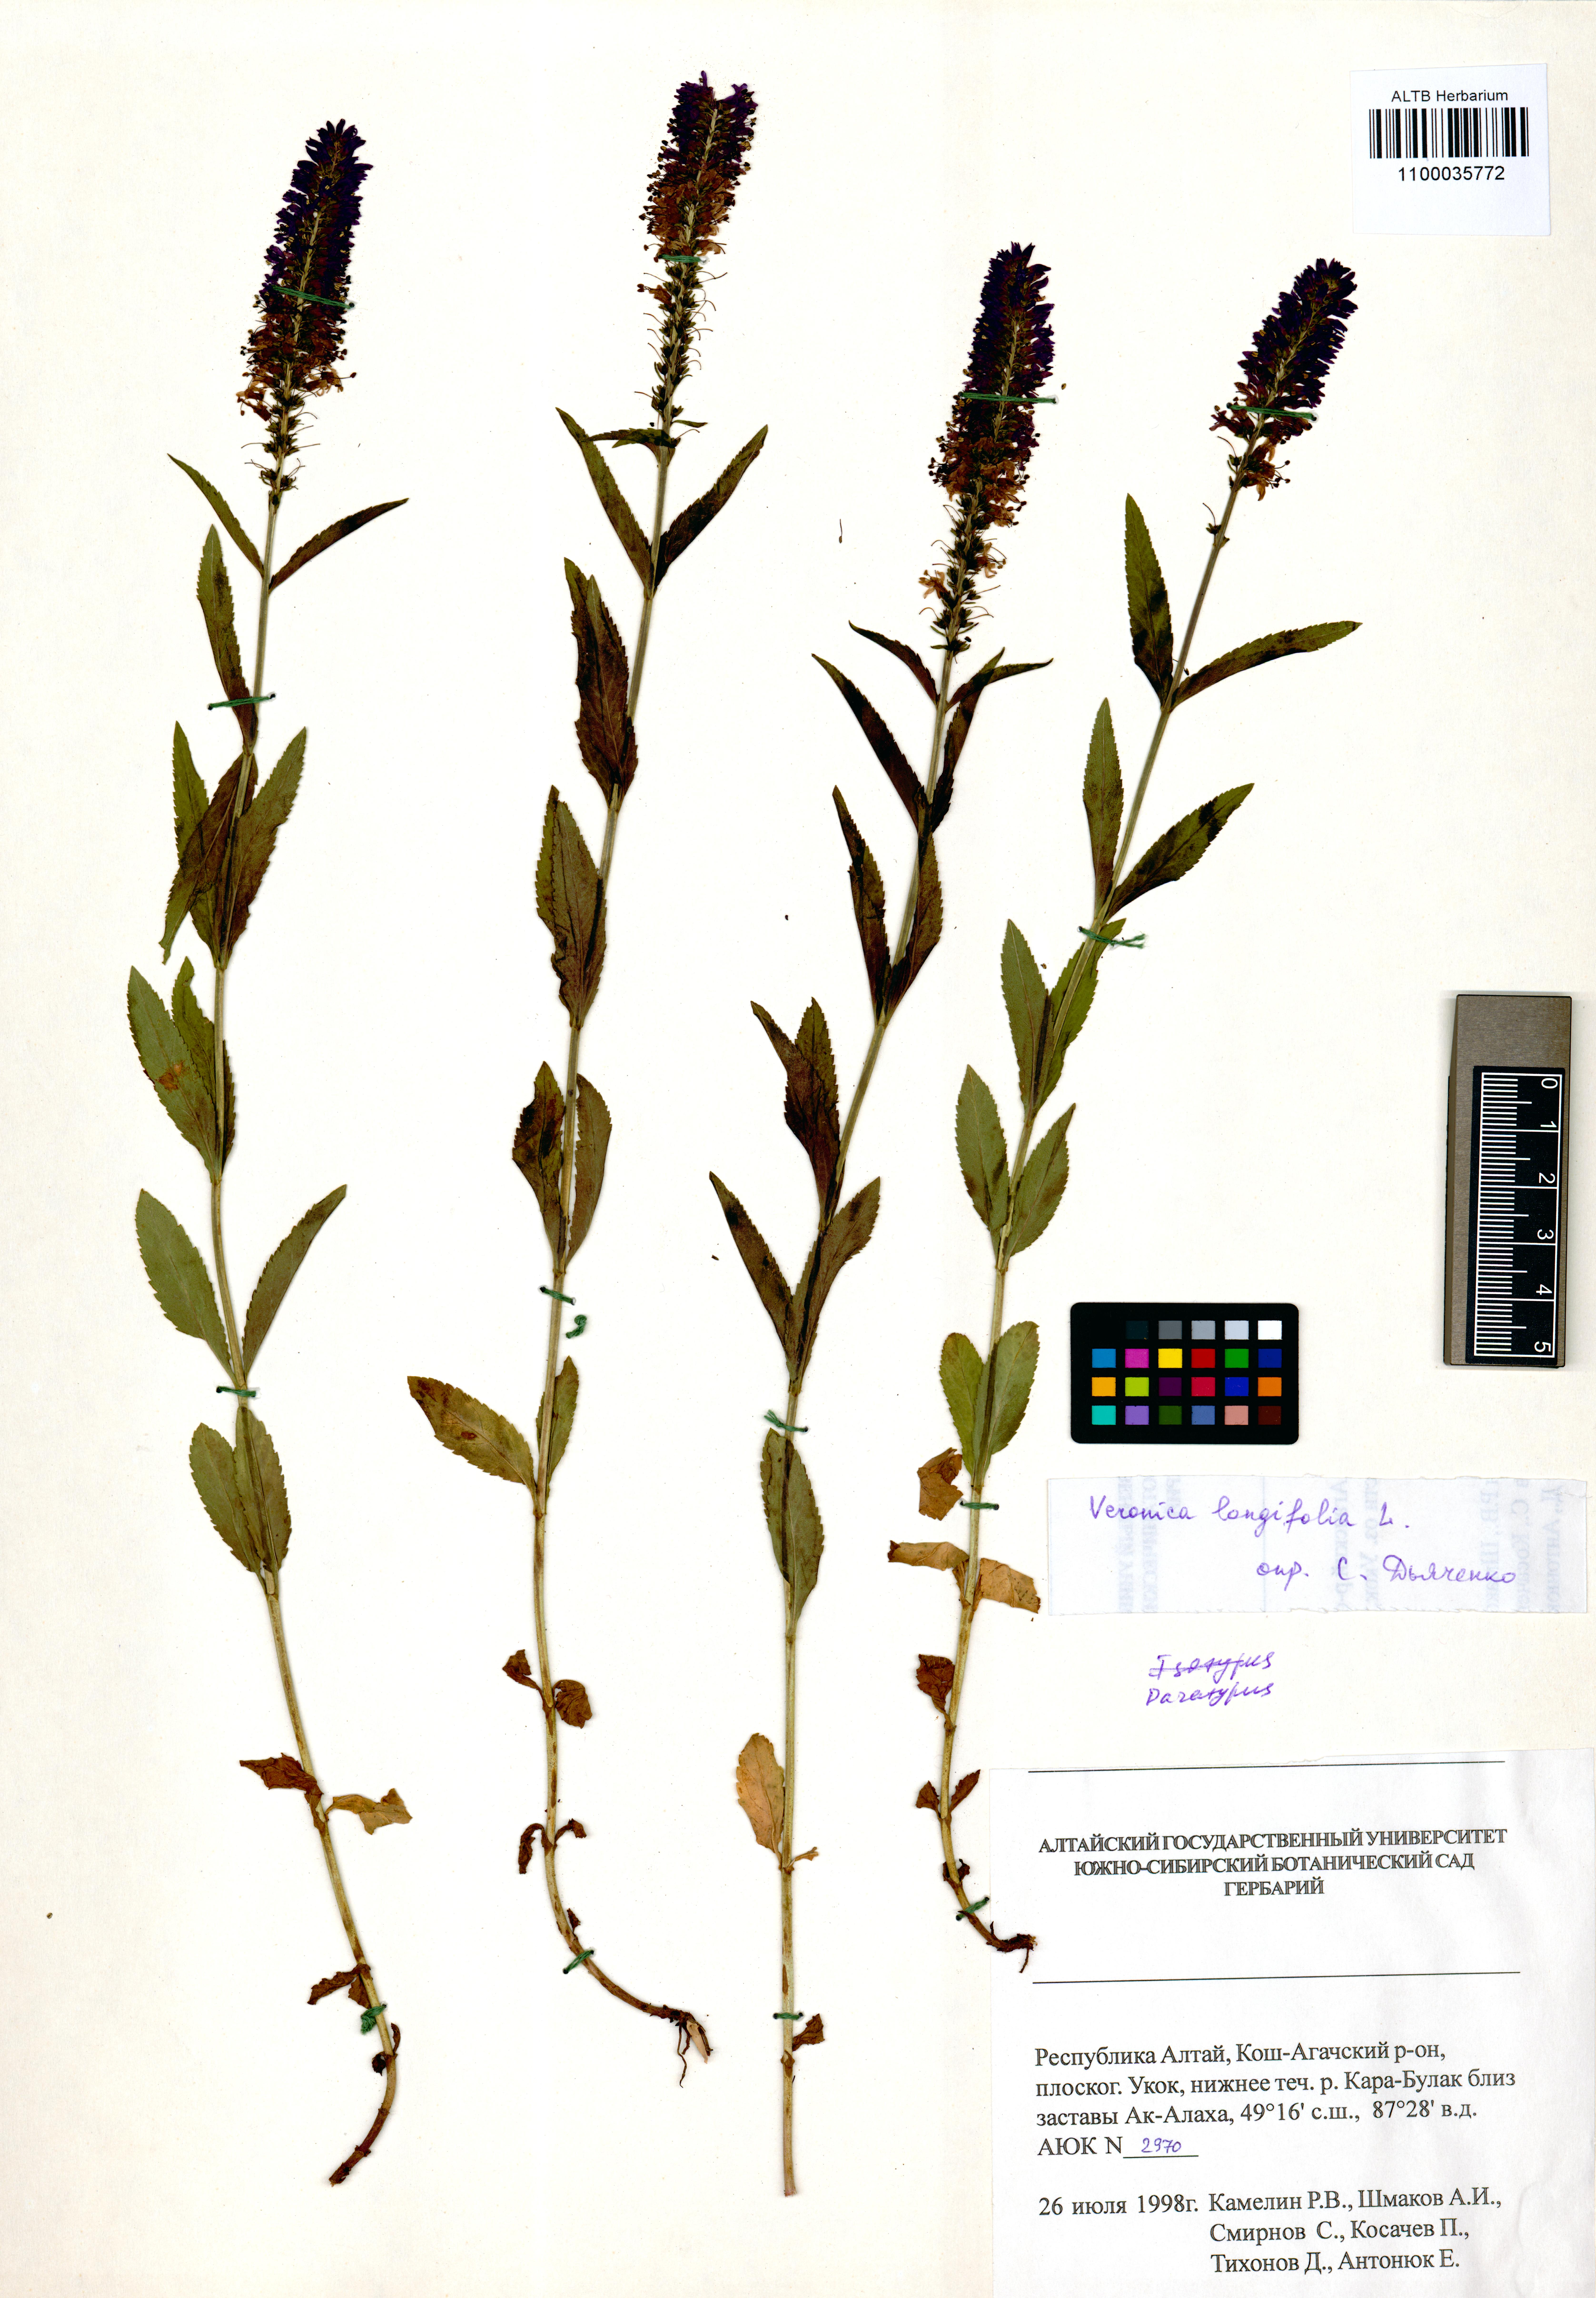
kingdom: Plantae
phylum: Tracheophyta
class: Magnoliopsida
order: Lamiales
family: Plantaginaceae
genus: Veronica
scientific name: Veronica schmakovii
